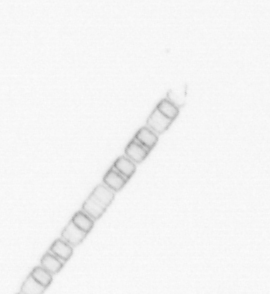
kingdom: Chromista
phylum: Ochrophyta
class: Bacillariophyceae
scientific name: Bacillariophyceae
